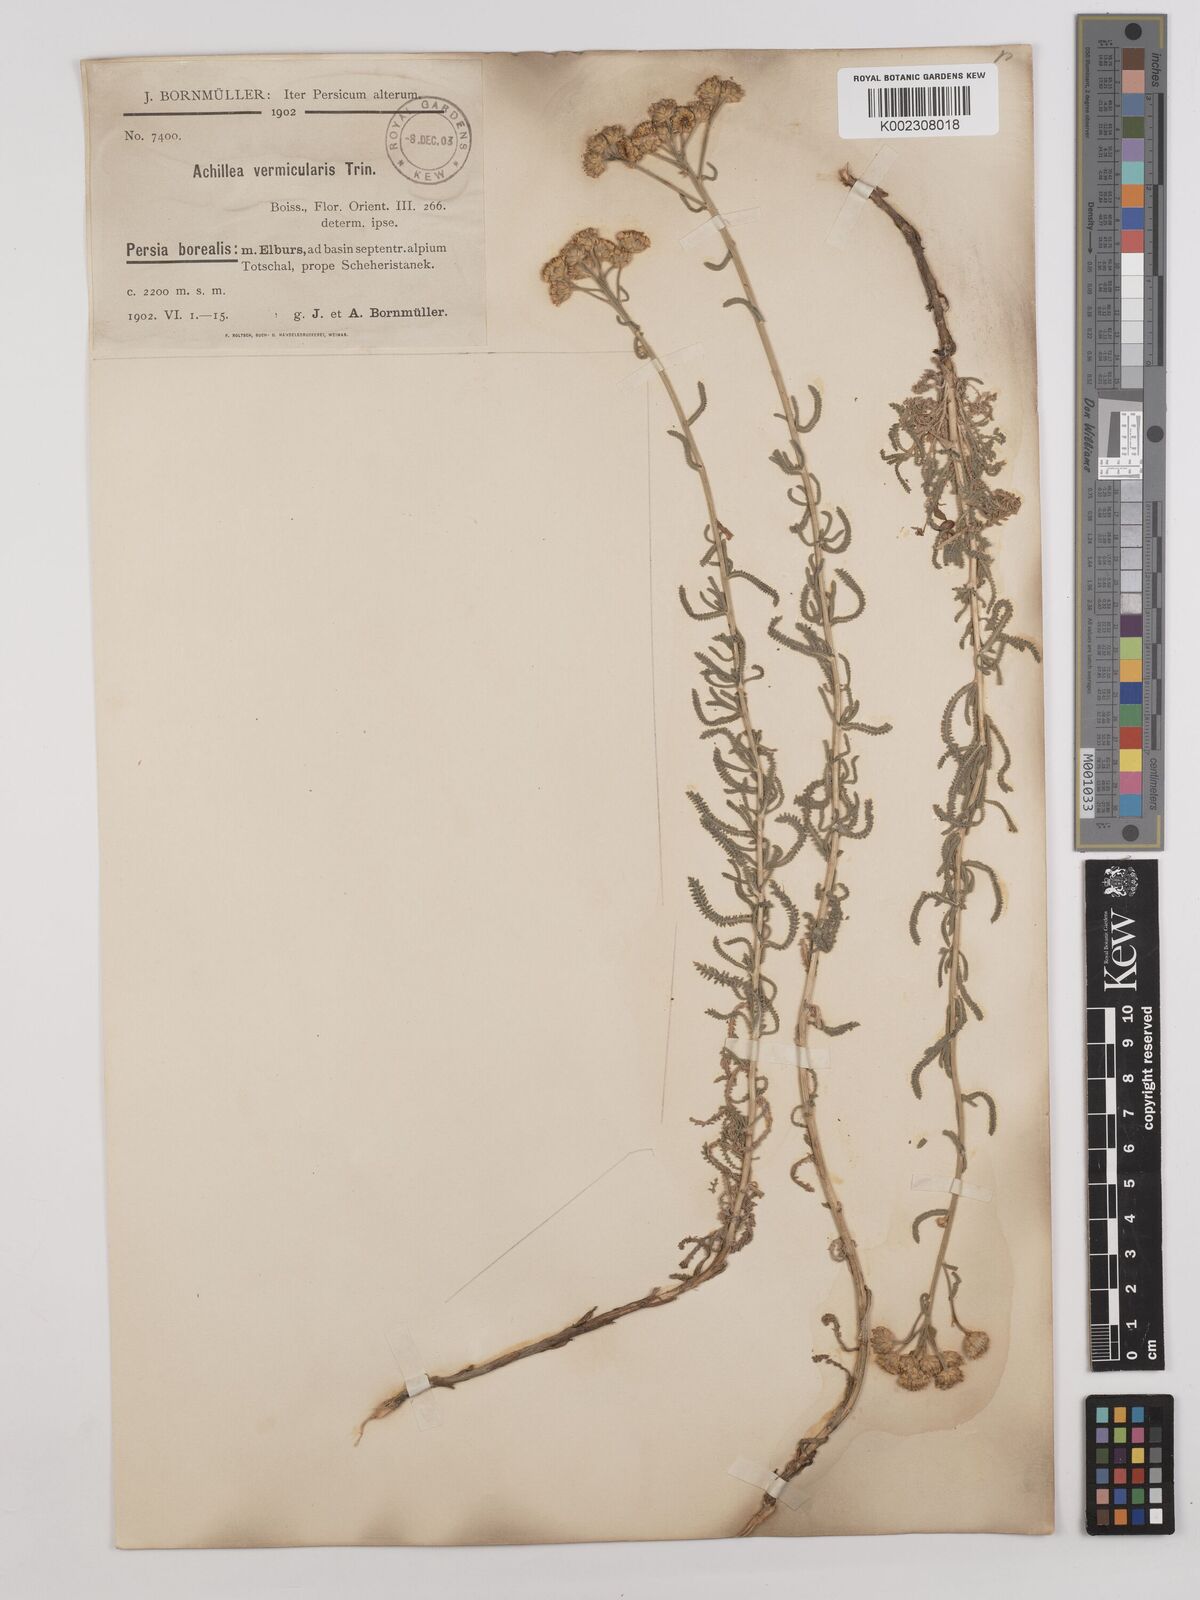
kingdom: Plantae
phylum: Tracheophyta
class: Magnoliopsida
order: Asterales
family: Asteraceae
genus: Achillea
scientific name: Achillea vermicularis
